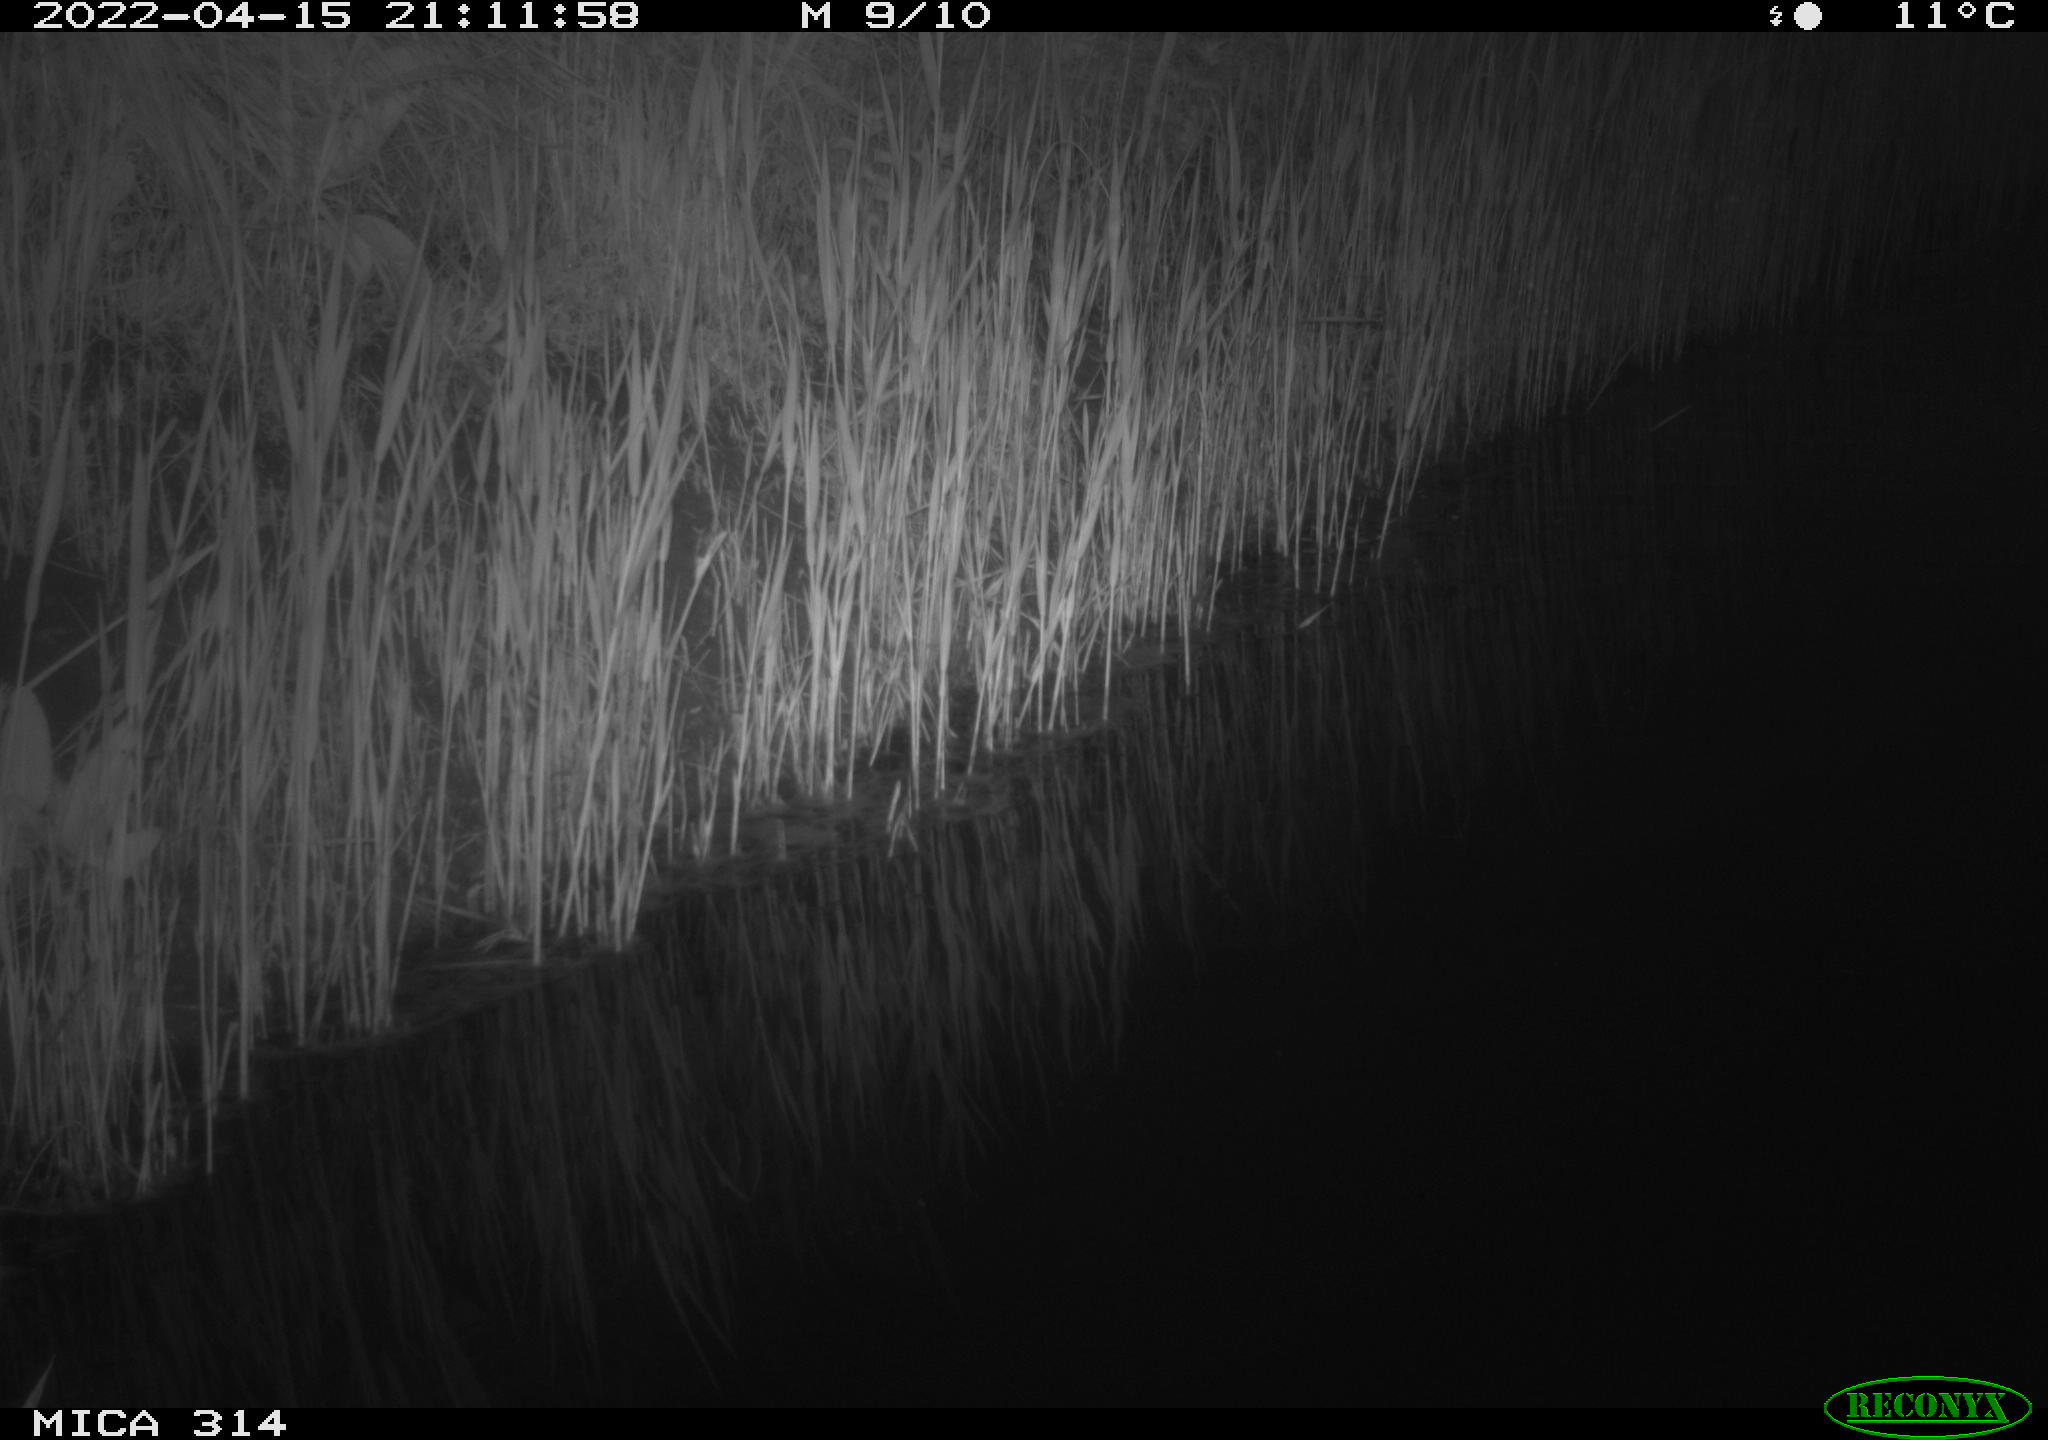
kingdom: Animalia
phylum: Chordata
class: Aves
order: Anseriformes
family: Anatidae
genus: Anas
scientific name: Anas platyrhynchos
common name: Mallard
